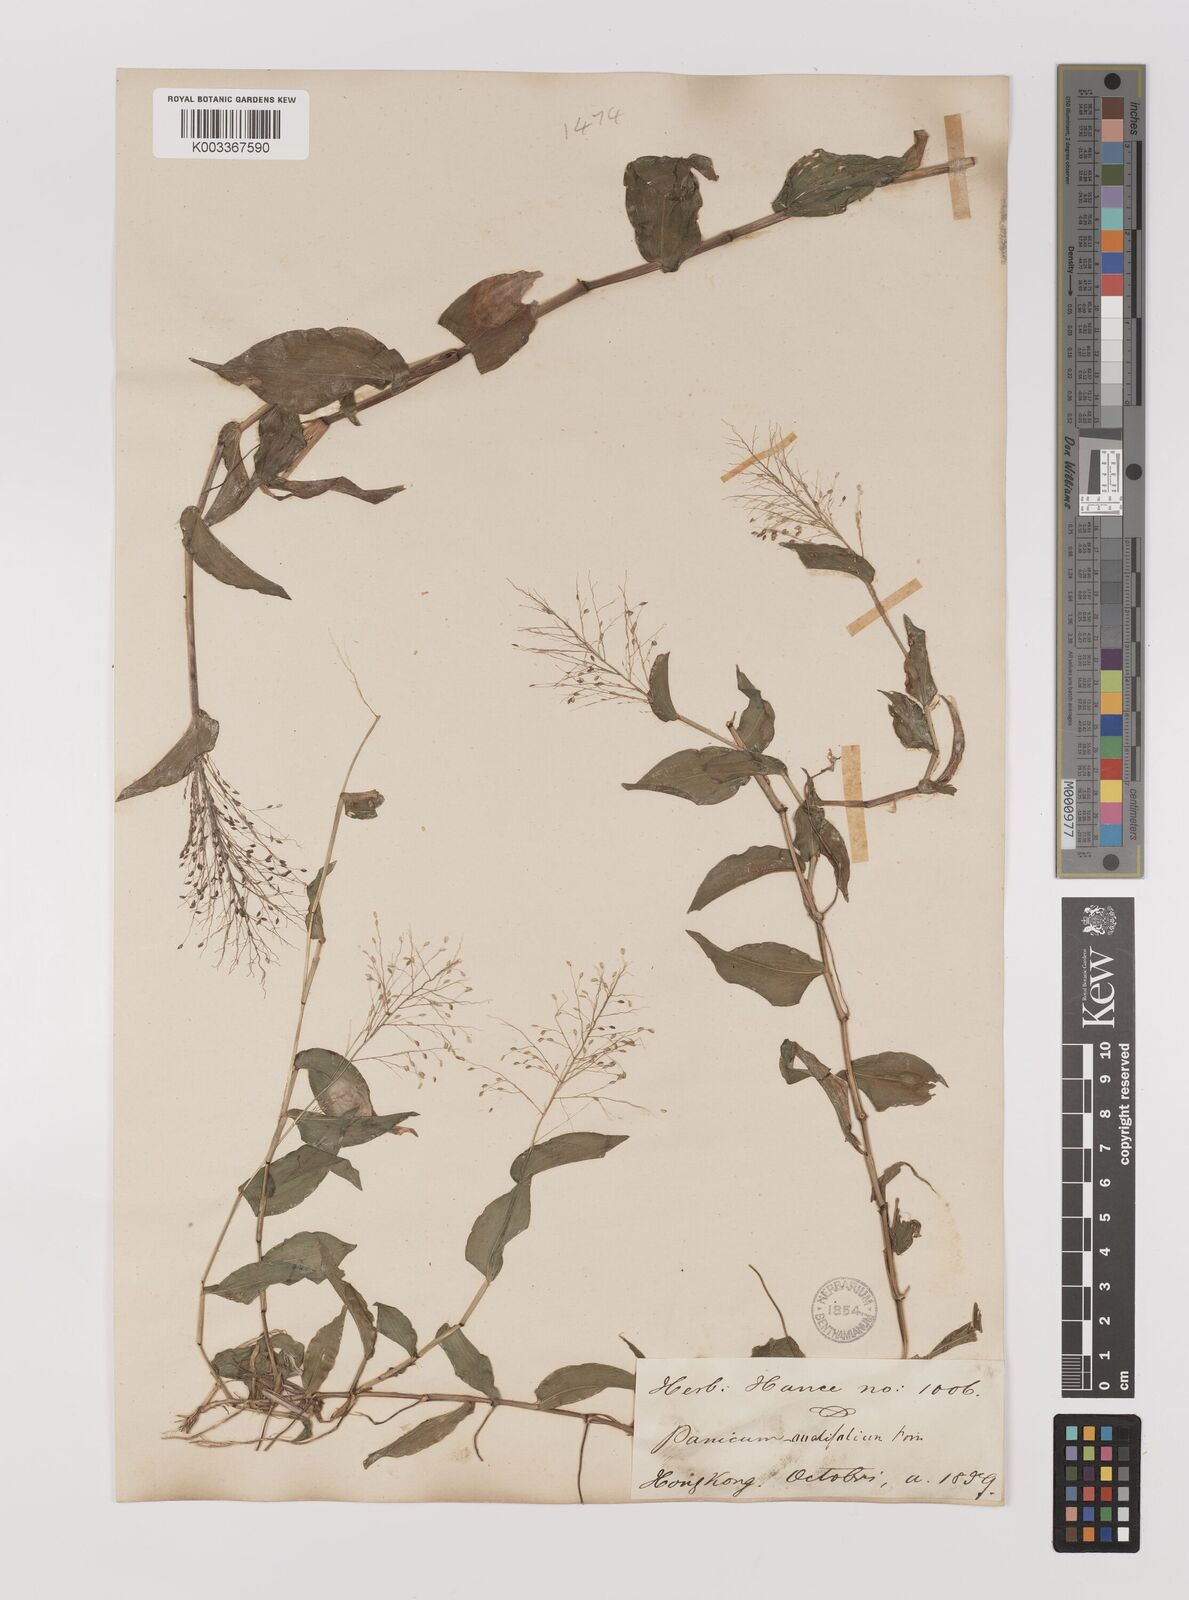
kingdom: Plantae
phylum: Tracheophyta
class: Liliopsida
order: Poales
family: Poaceae
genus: Panicum
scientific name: Panicum brevifolium
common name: Shortleaf panic grass
